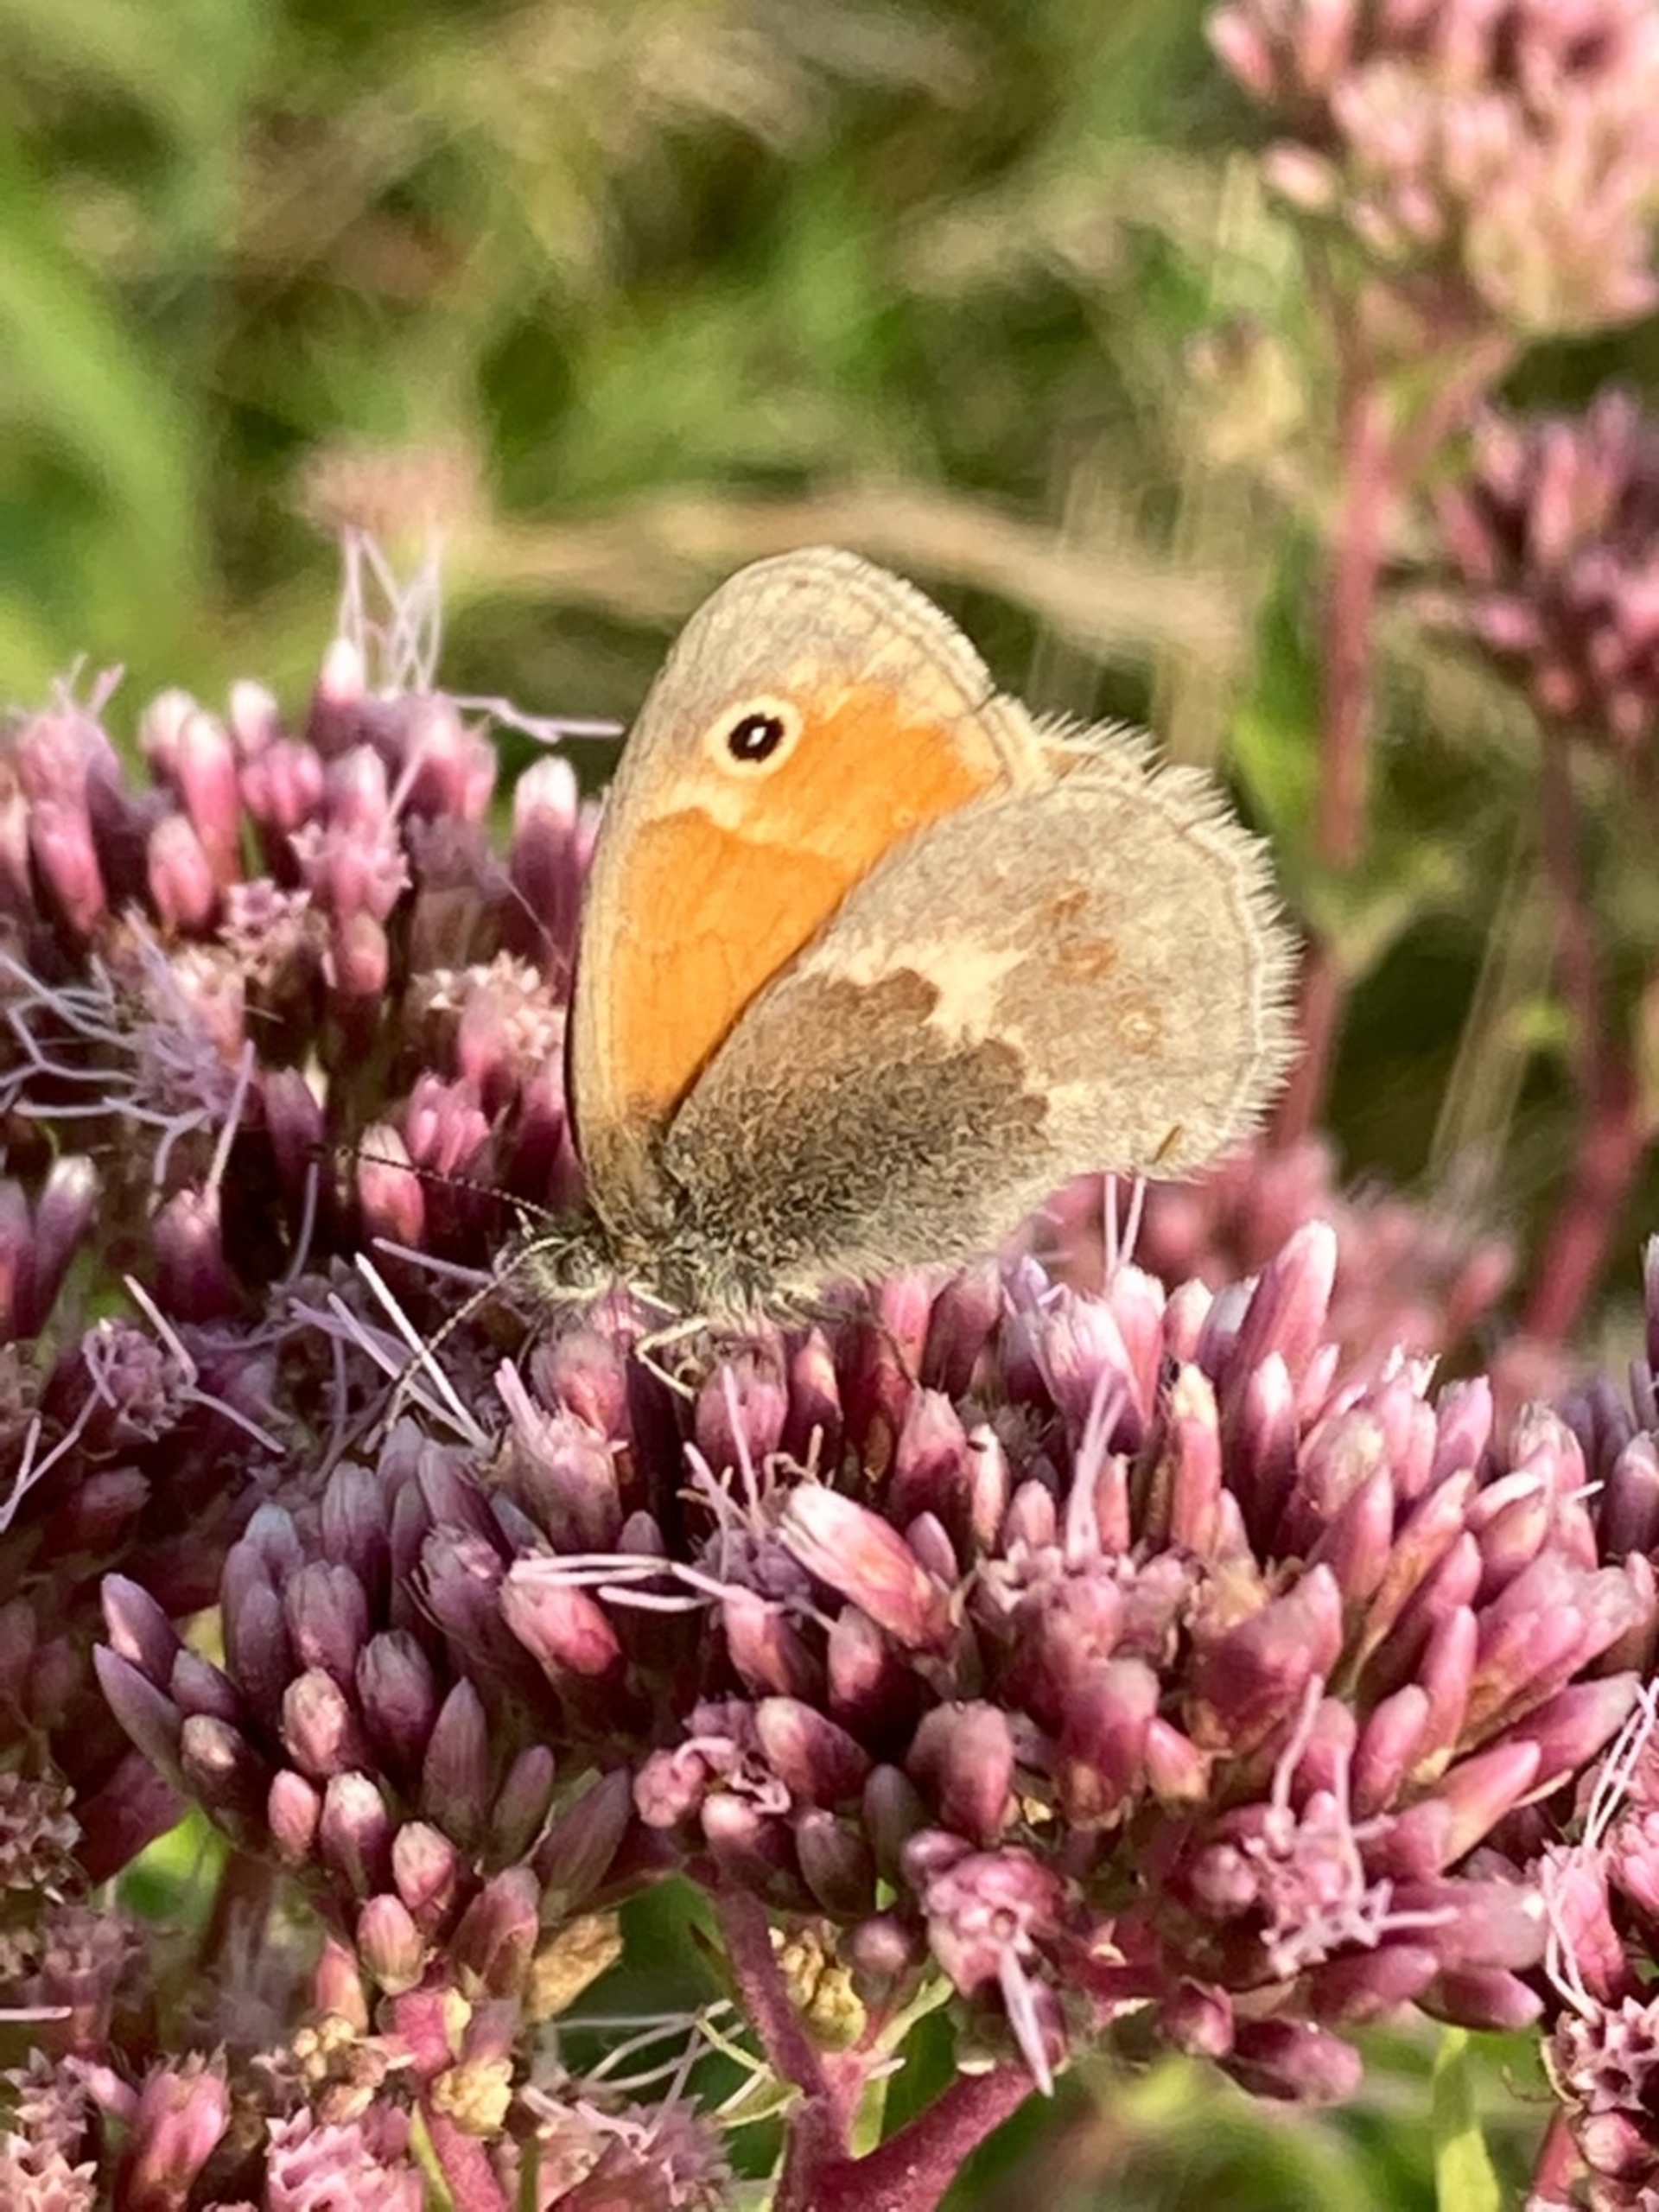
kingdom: Animalia
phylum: Arthropoda
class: Insecta
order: Lepidoptera
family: Nymphalidae
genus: Coenonympha
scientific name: Coenonympha pamphilus
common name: Okkergul randøje
